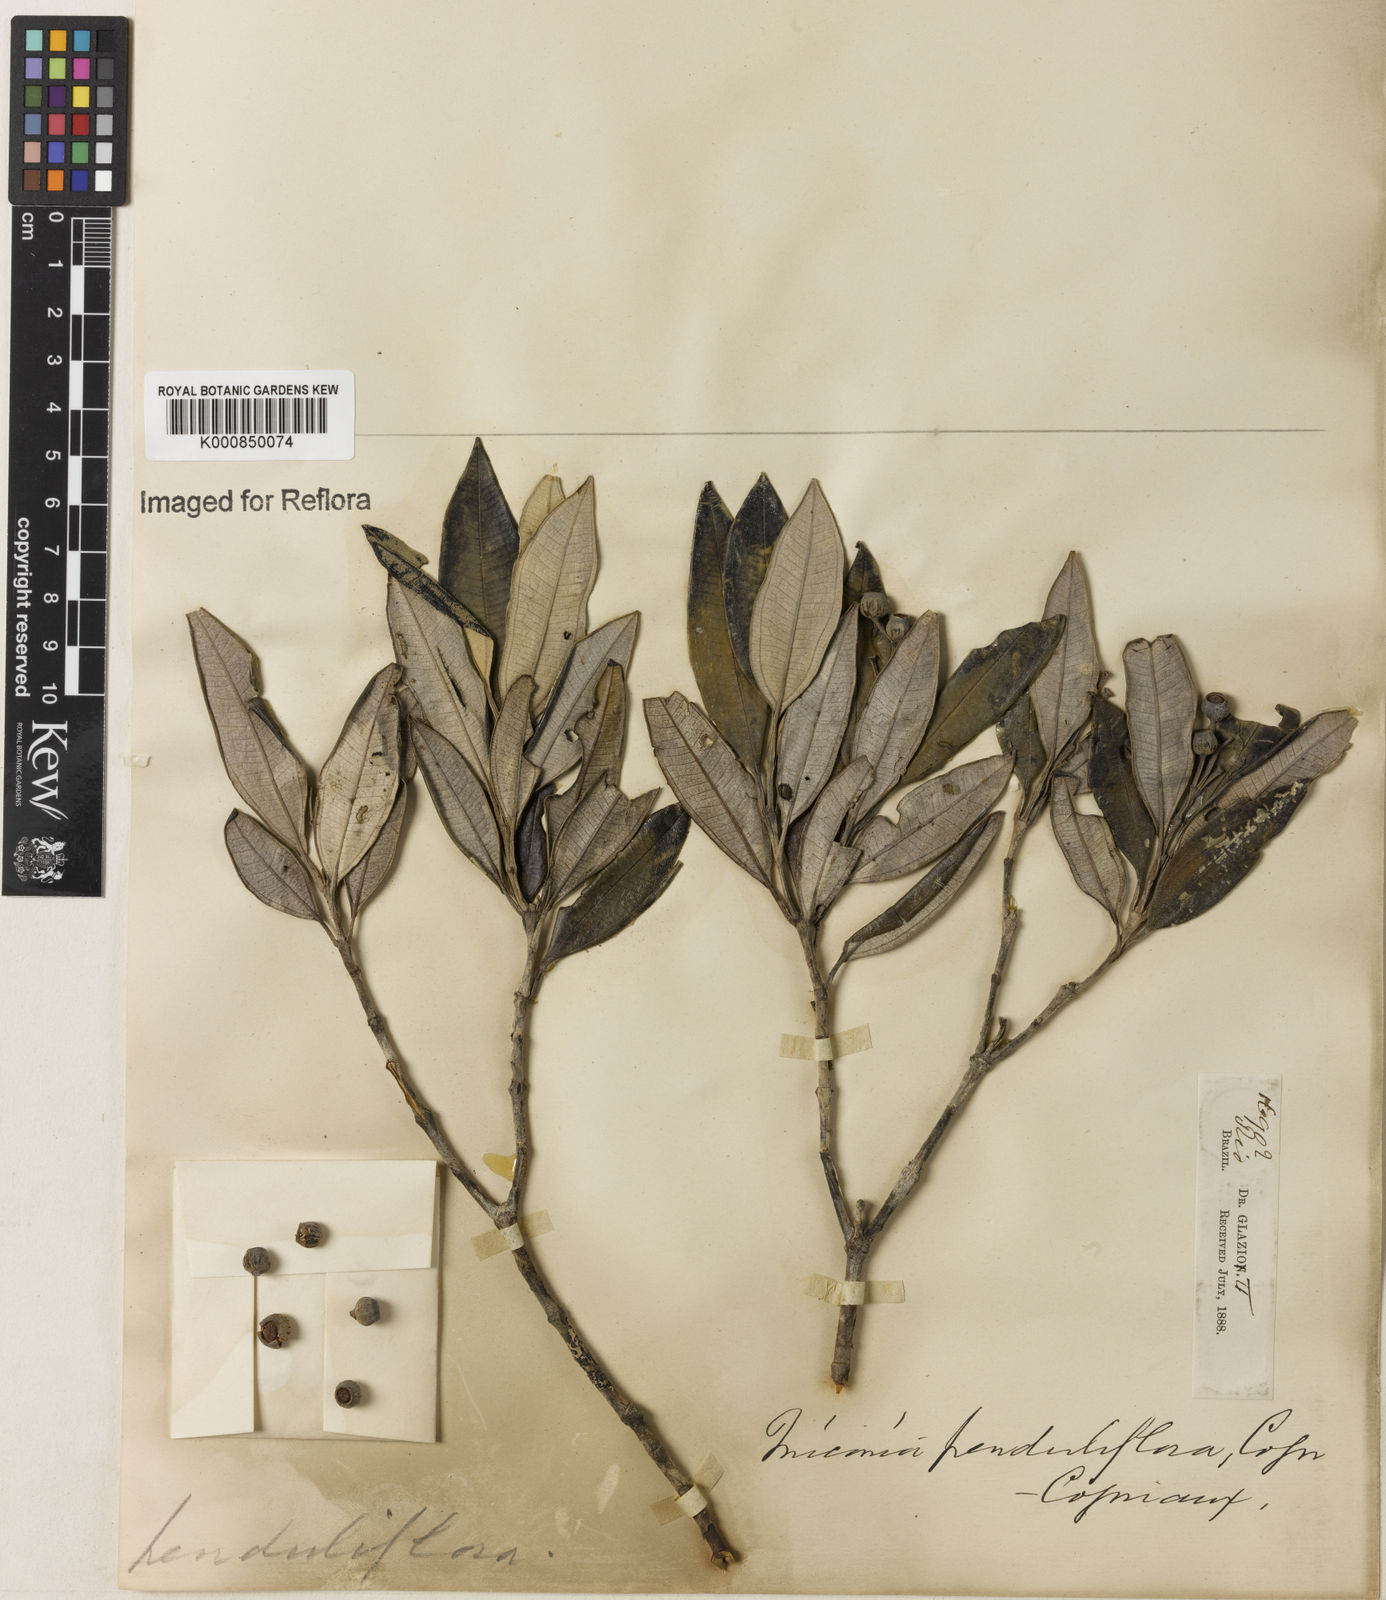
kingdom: Plantae
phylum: Tracheophyta
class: Magnoliopsida
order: Myrtales
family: Melastomataceae
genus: Miconia
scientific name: Miconia penduliflora
